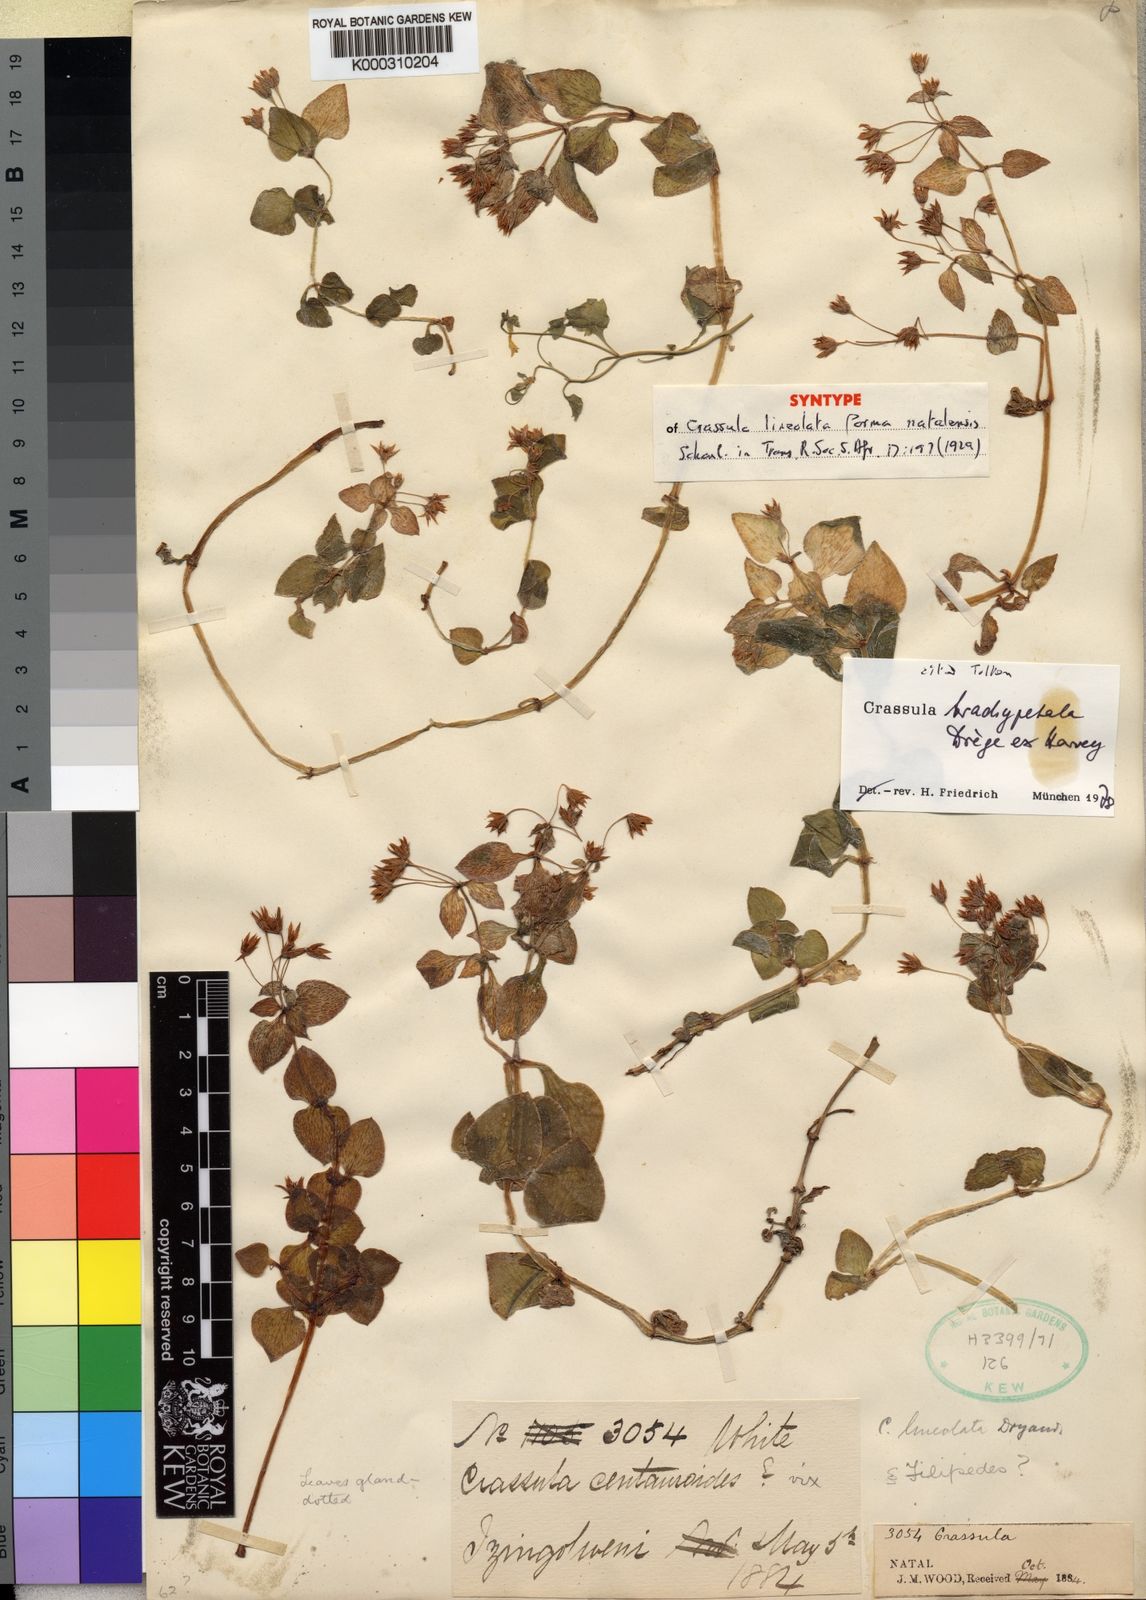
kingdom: Plantae
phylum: Tracheophyta
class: Magnoliopsida
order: Saxifragales
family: Crassulaceae
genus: Crassula
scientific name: Crassula pellucida
